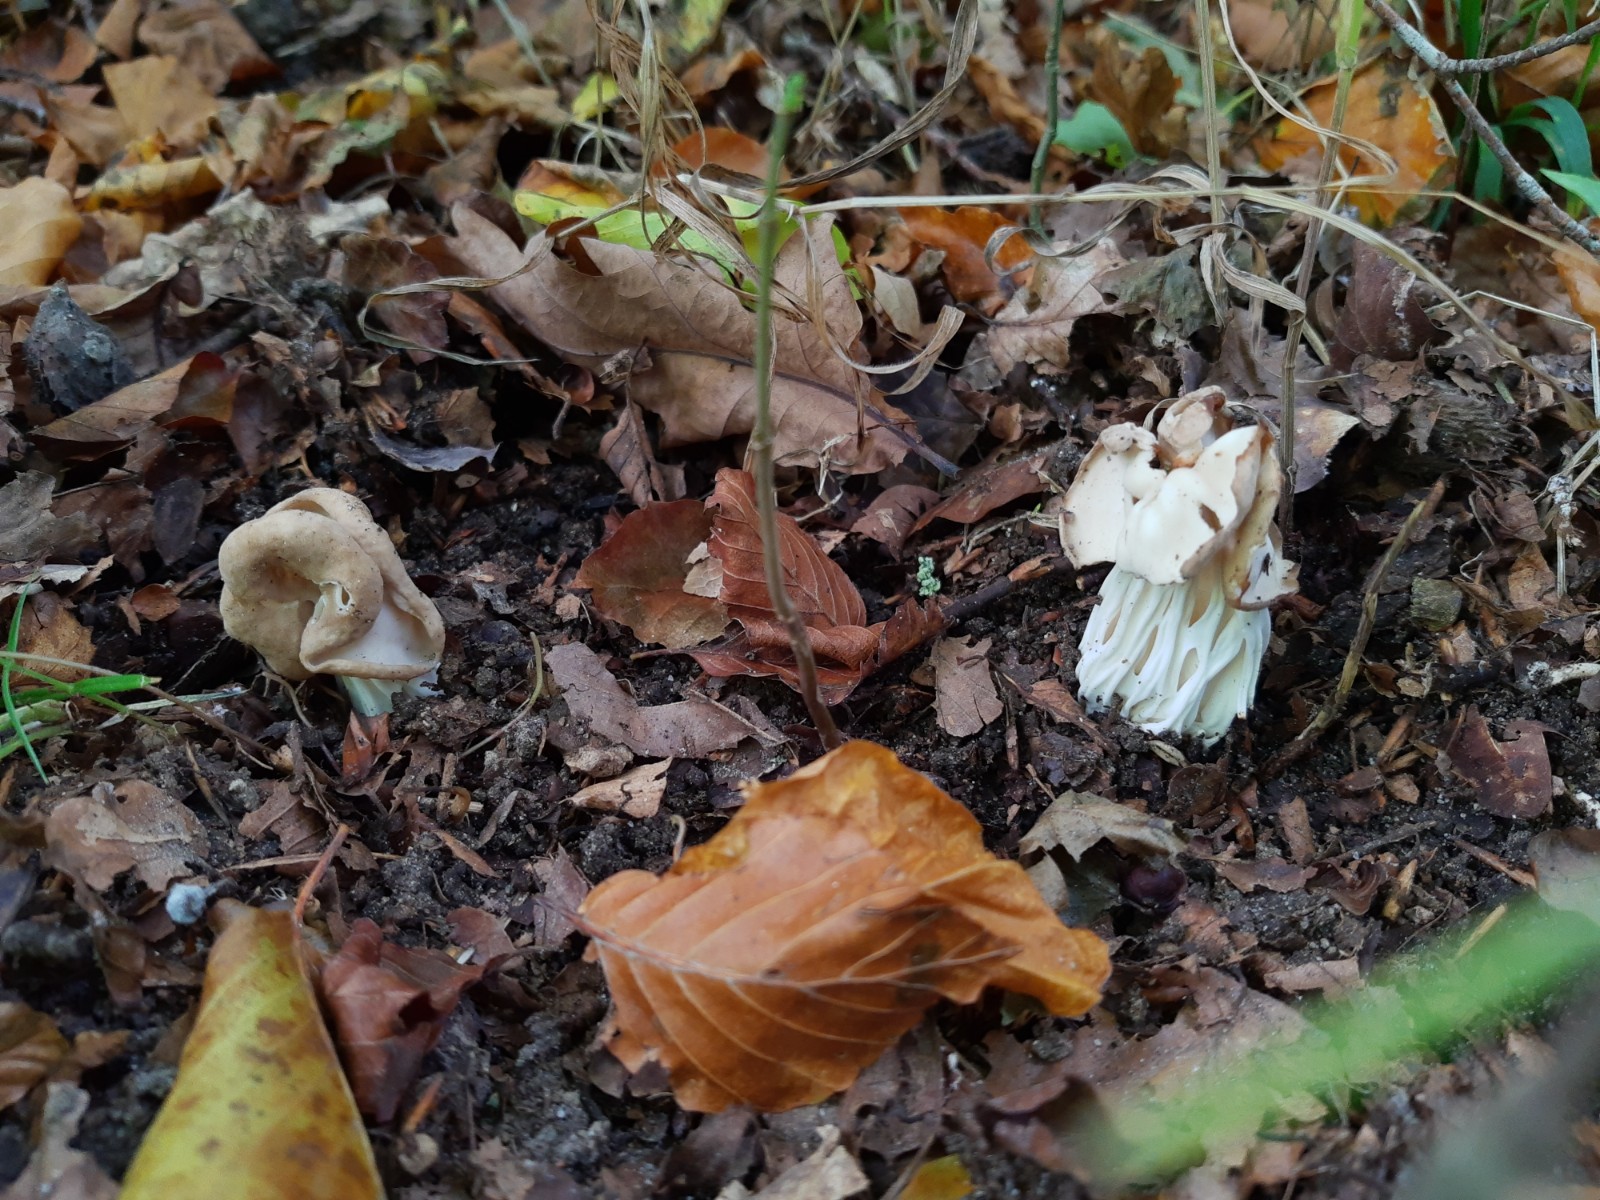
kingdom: Fungi
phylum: Ascomycota
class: Pezizomycetes
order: Pezizales
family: Helvellaceae
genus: Helvella
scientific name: Helvella crispa
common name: kruset foldhat
